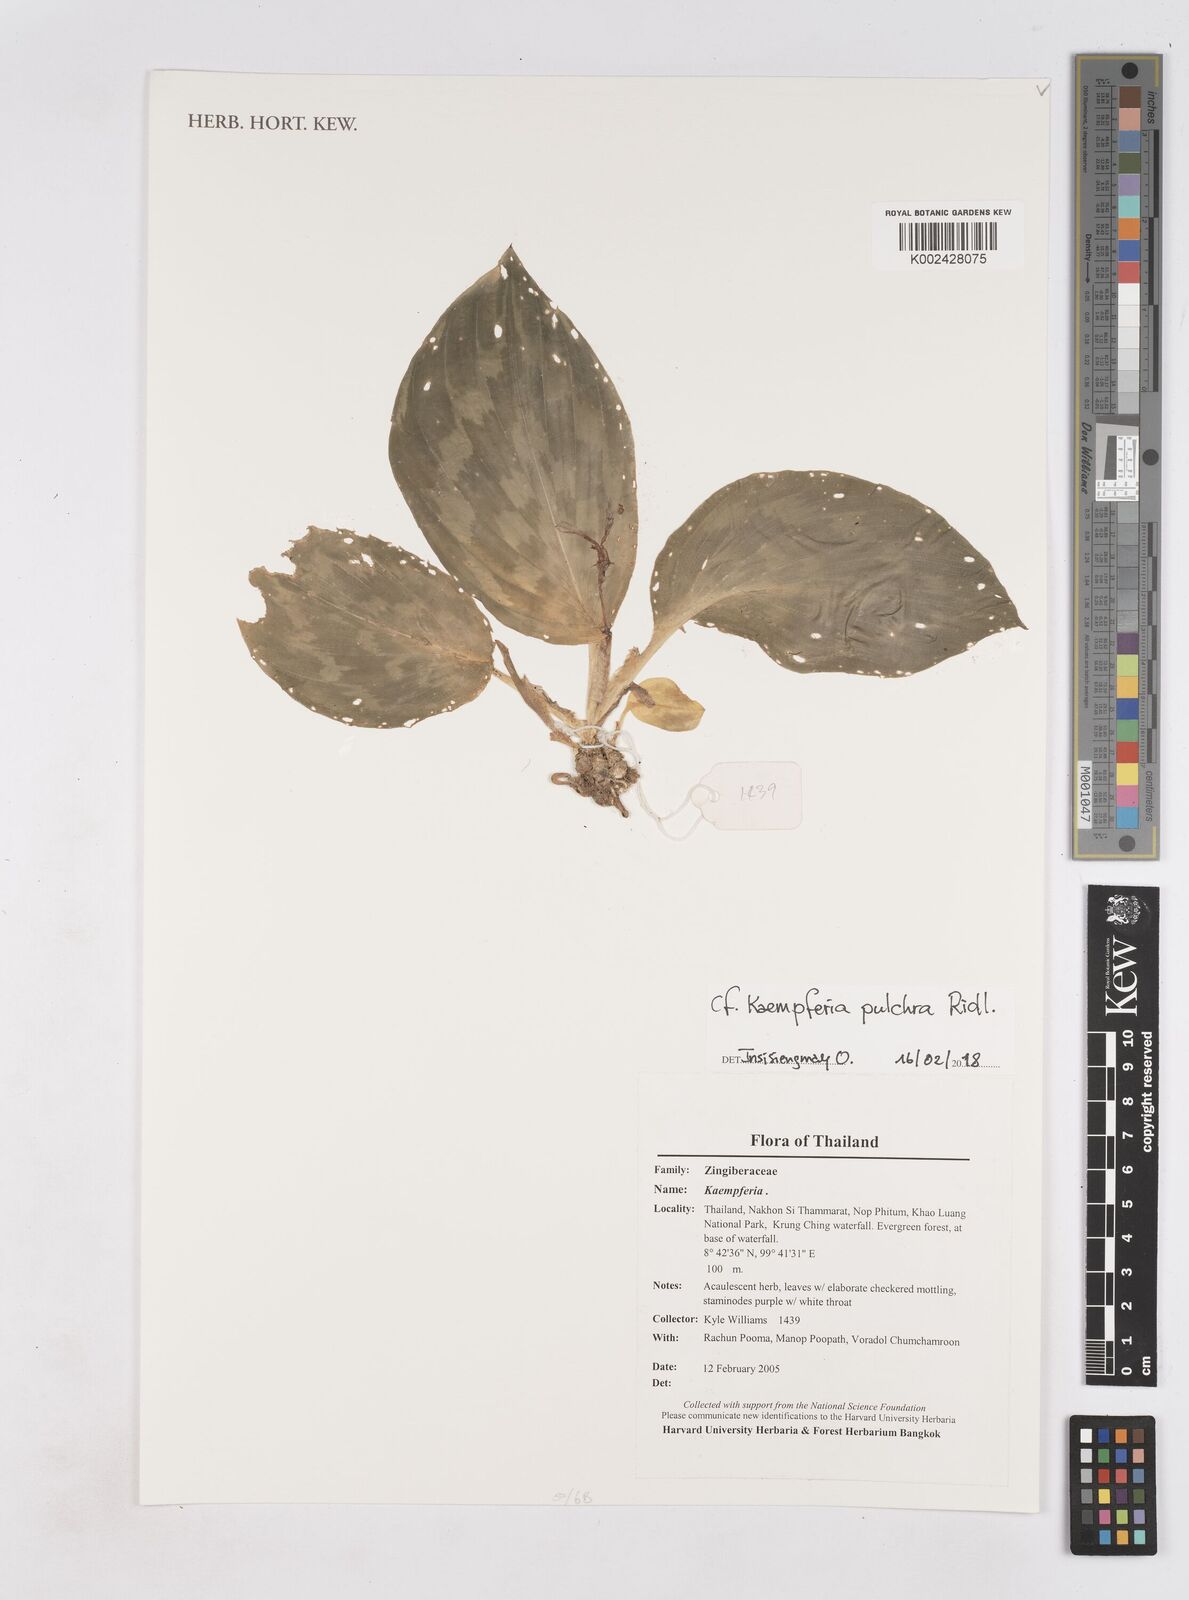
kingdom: Plantae
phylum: Tracheophyta
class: Liliopsida
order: Zingiberales
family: Zingiberaceae
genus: Kaempferia
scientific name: Kaempferia pulchra
